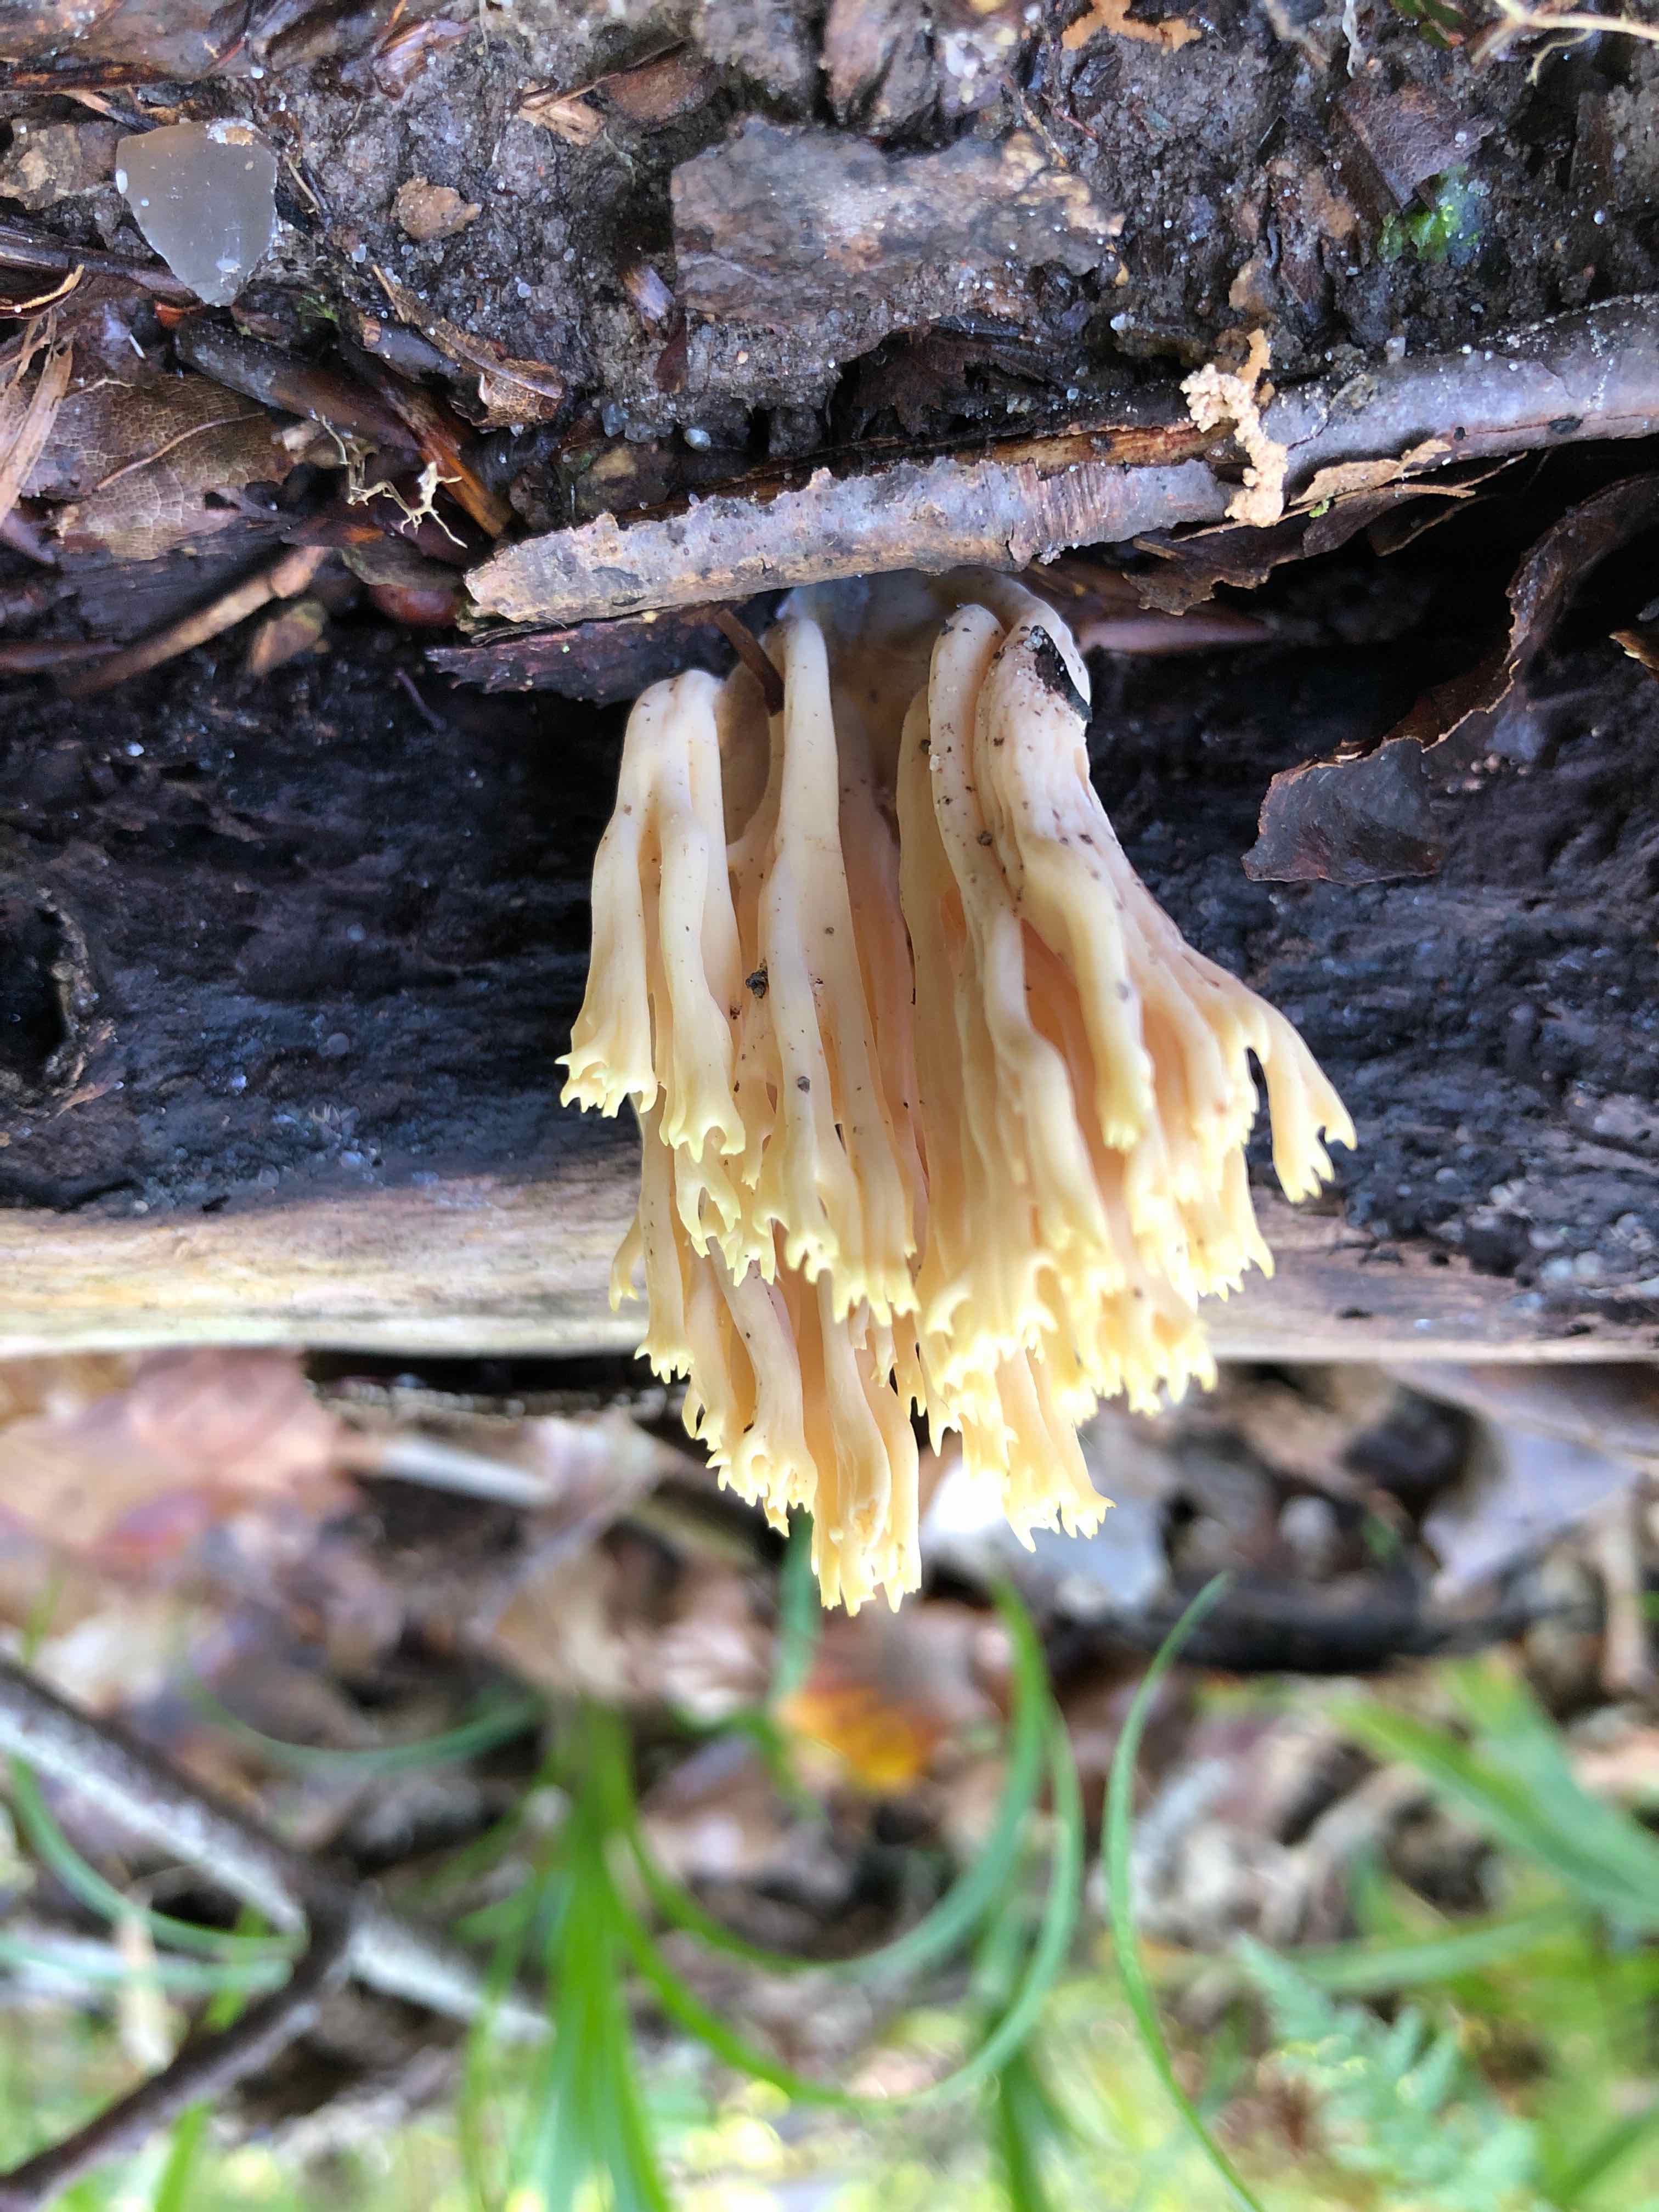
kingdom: Fungi
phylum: Basidiomycota
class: Agaricomycetes
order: Gomphales
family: Gomphaceae
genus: Ramaria
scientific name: Ramaria stricta
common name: rank koralsvamp
